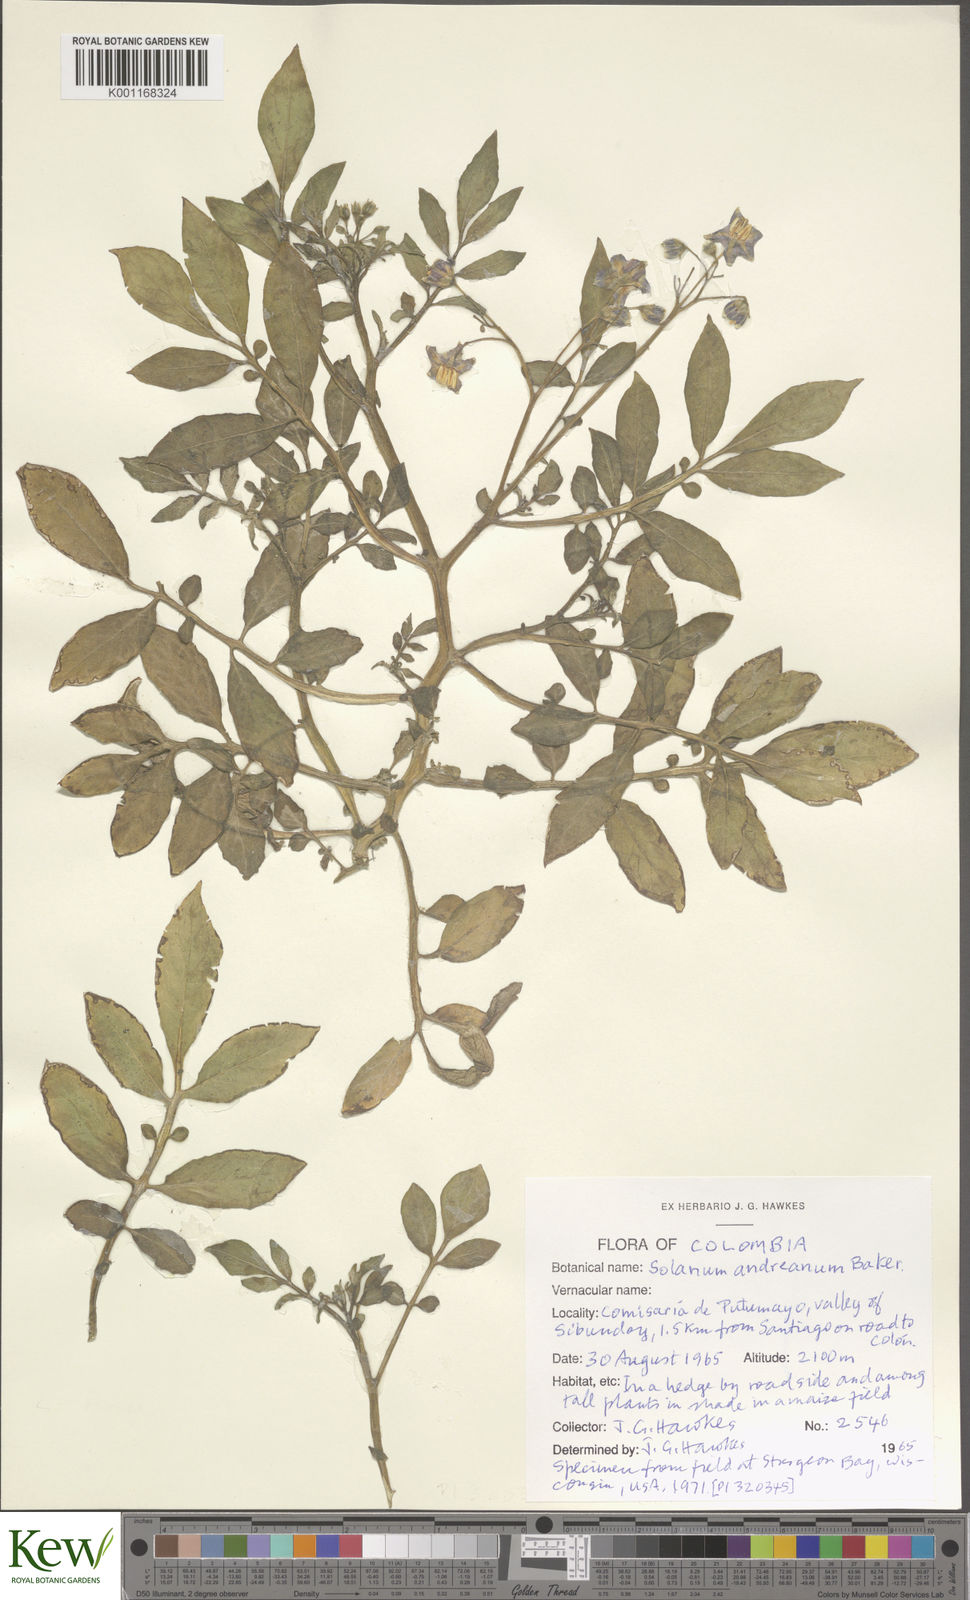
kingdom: Plantae
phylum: Tracheophyta
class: Magnoliopsida
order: Solanales
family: Solanaceae
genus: Solanum
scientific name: Solanum andreanum
